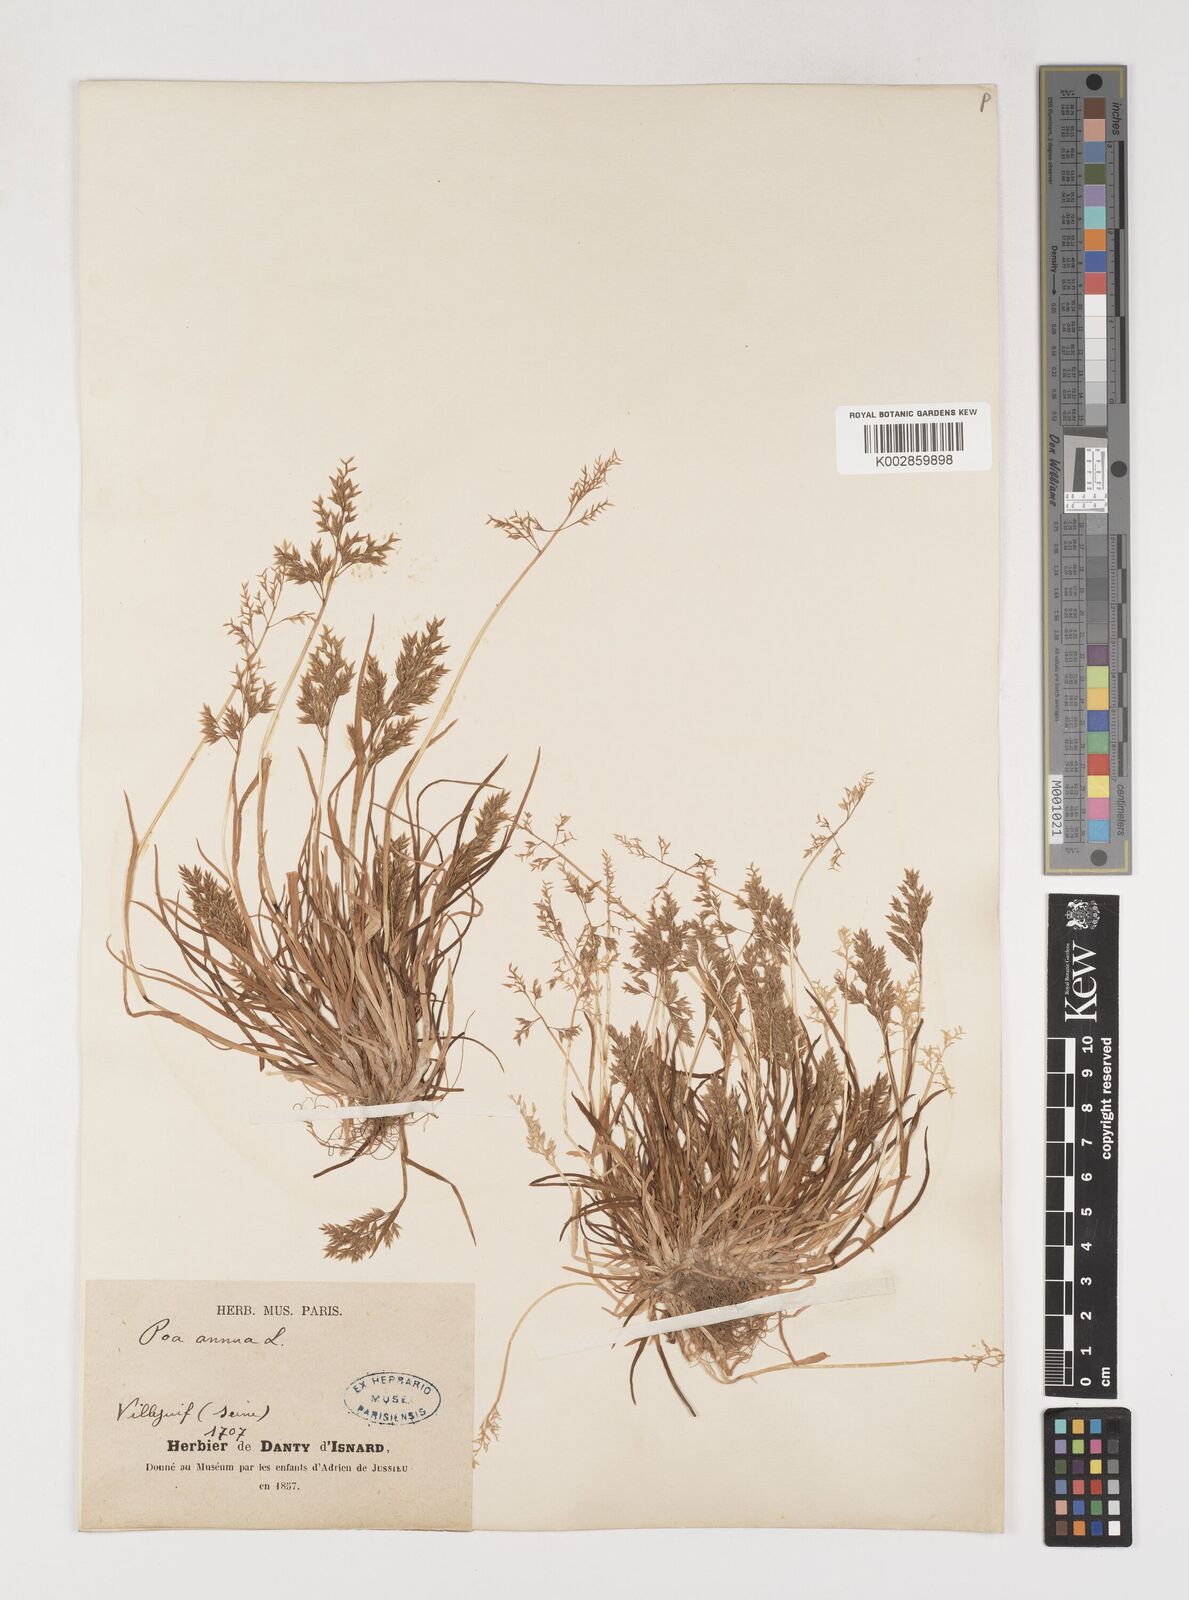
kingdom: Plantae
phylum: Tracheophyta
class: Liliopsida
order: Poales
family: Poaceae
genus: Poa
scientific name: Poa annua
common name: Annual bluegrass
